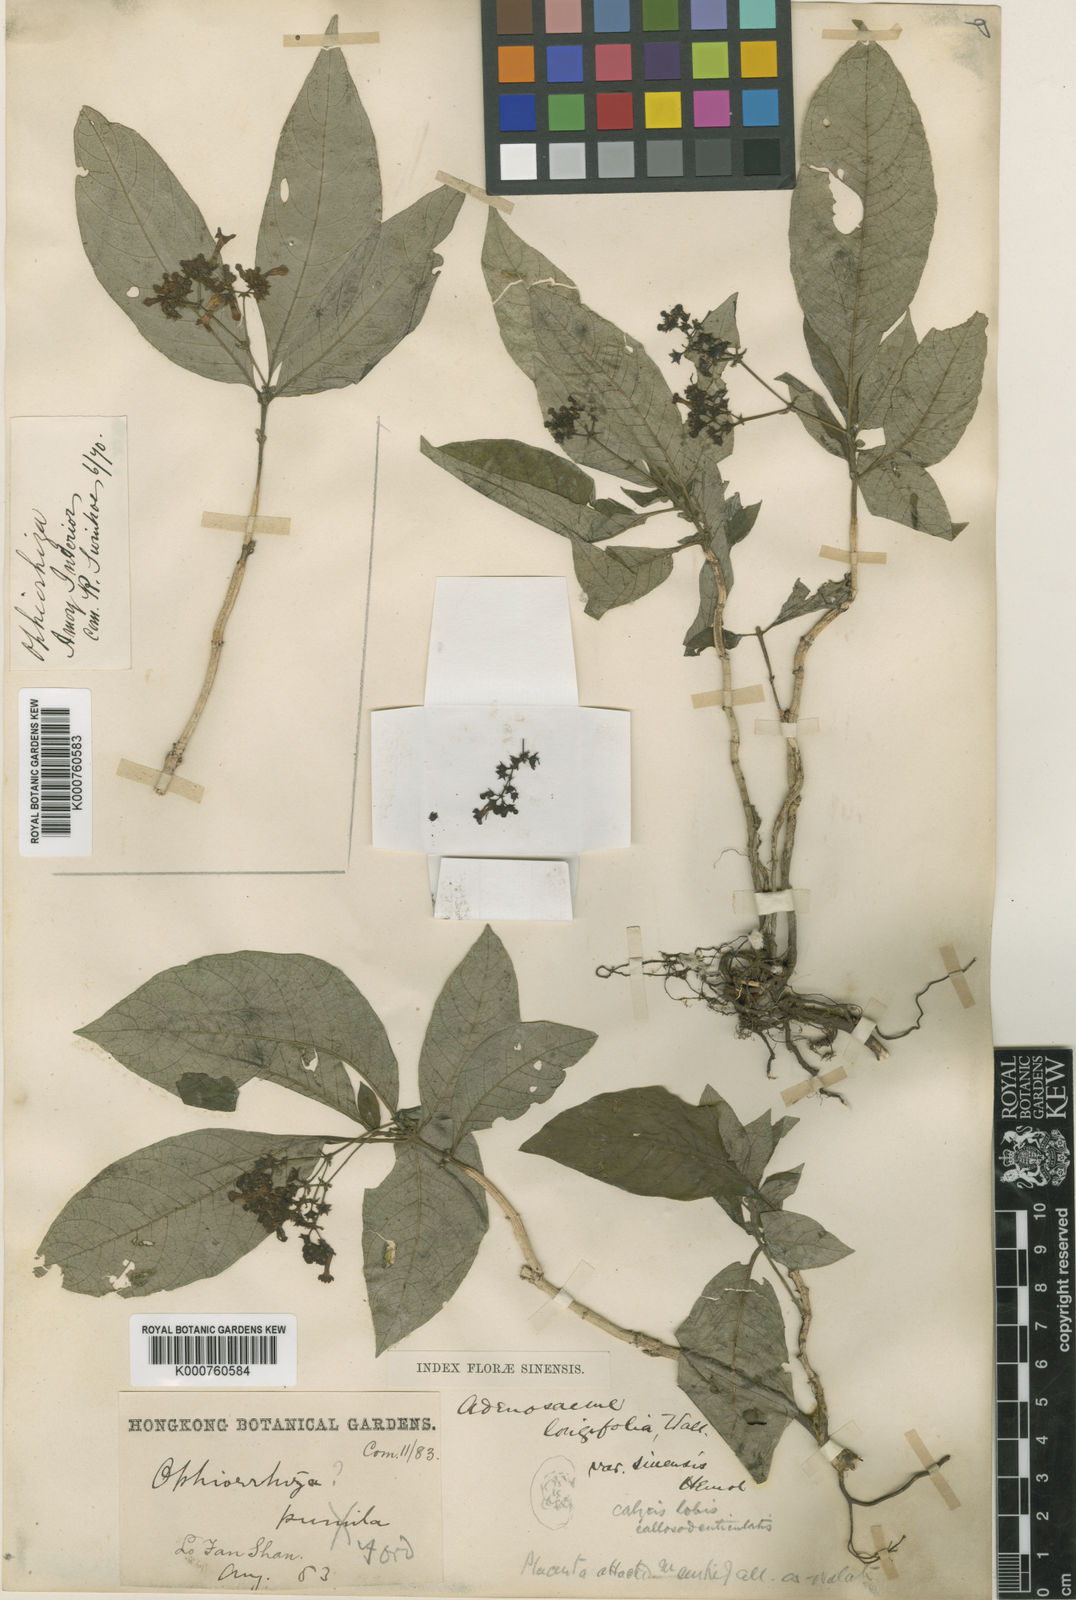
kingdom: Plantae
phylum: Tracheophyta
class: Magnoliopsida
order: Gentianales
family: Rubiaceae
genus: Mycetia
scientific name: Mycetia sinensis
